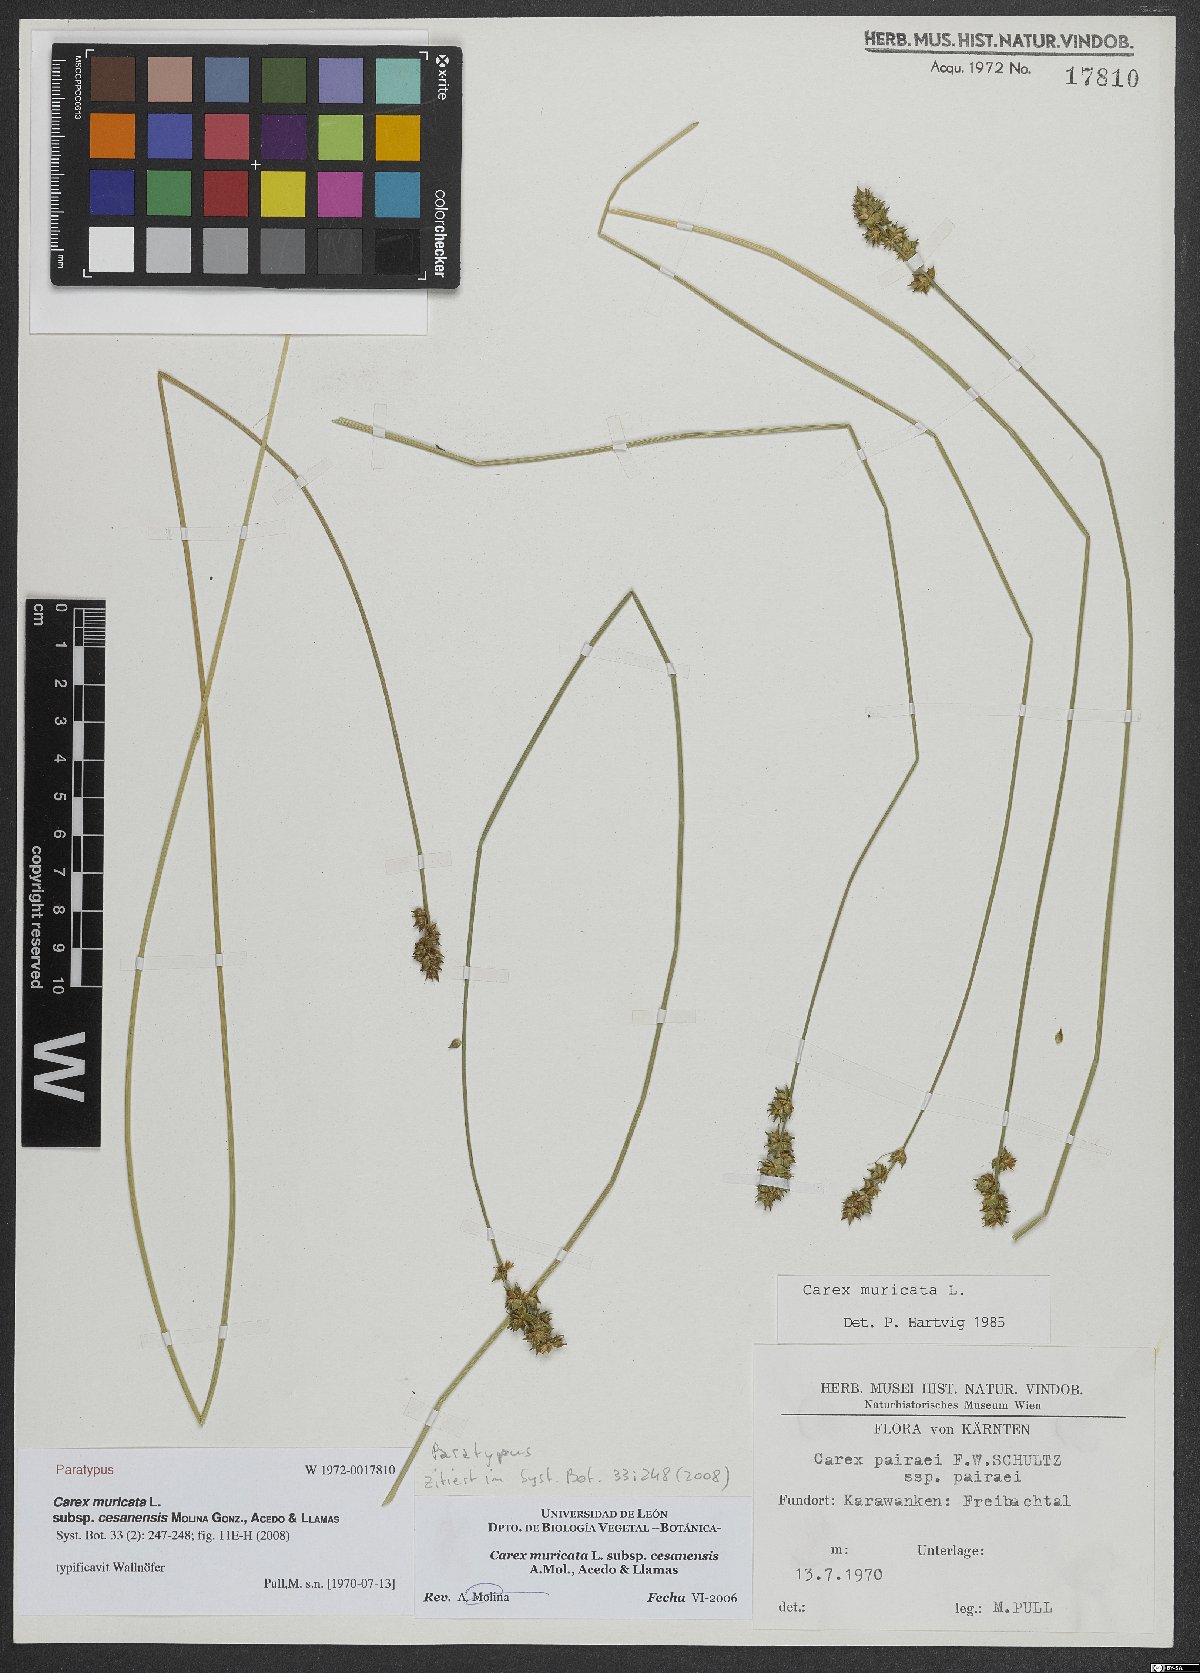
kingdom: Plantae
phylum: Tracheophyta
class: Liliopsida
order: Poales
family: Cyperaceae
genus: Carex
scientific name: Carex muricata
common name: Rough sedge
